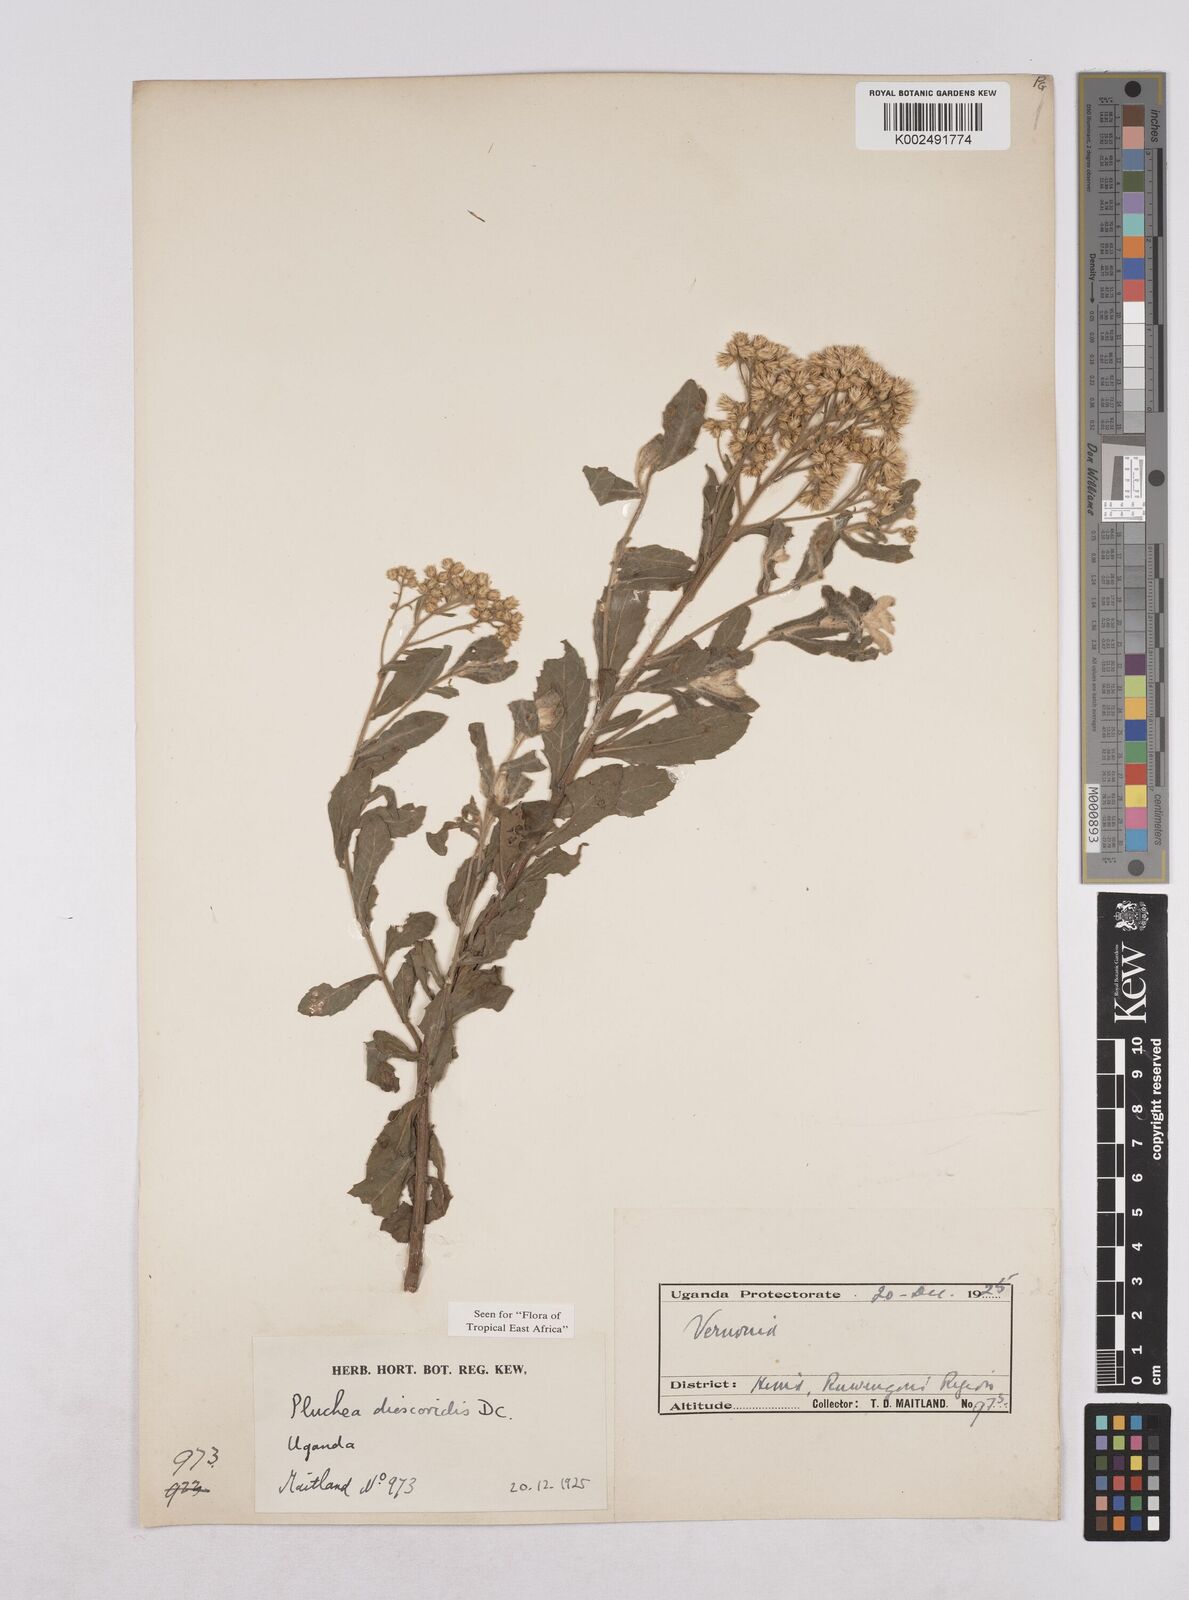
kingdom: Plantae
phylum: Tracheophyta
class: Magnoliopsida
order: Asterales
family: Asteraceae
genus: Pluchea
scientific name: Pluchea dioscoridis
